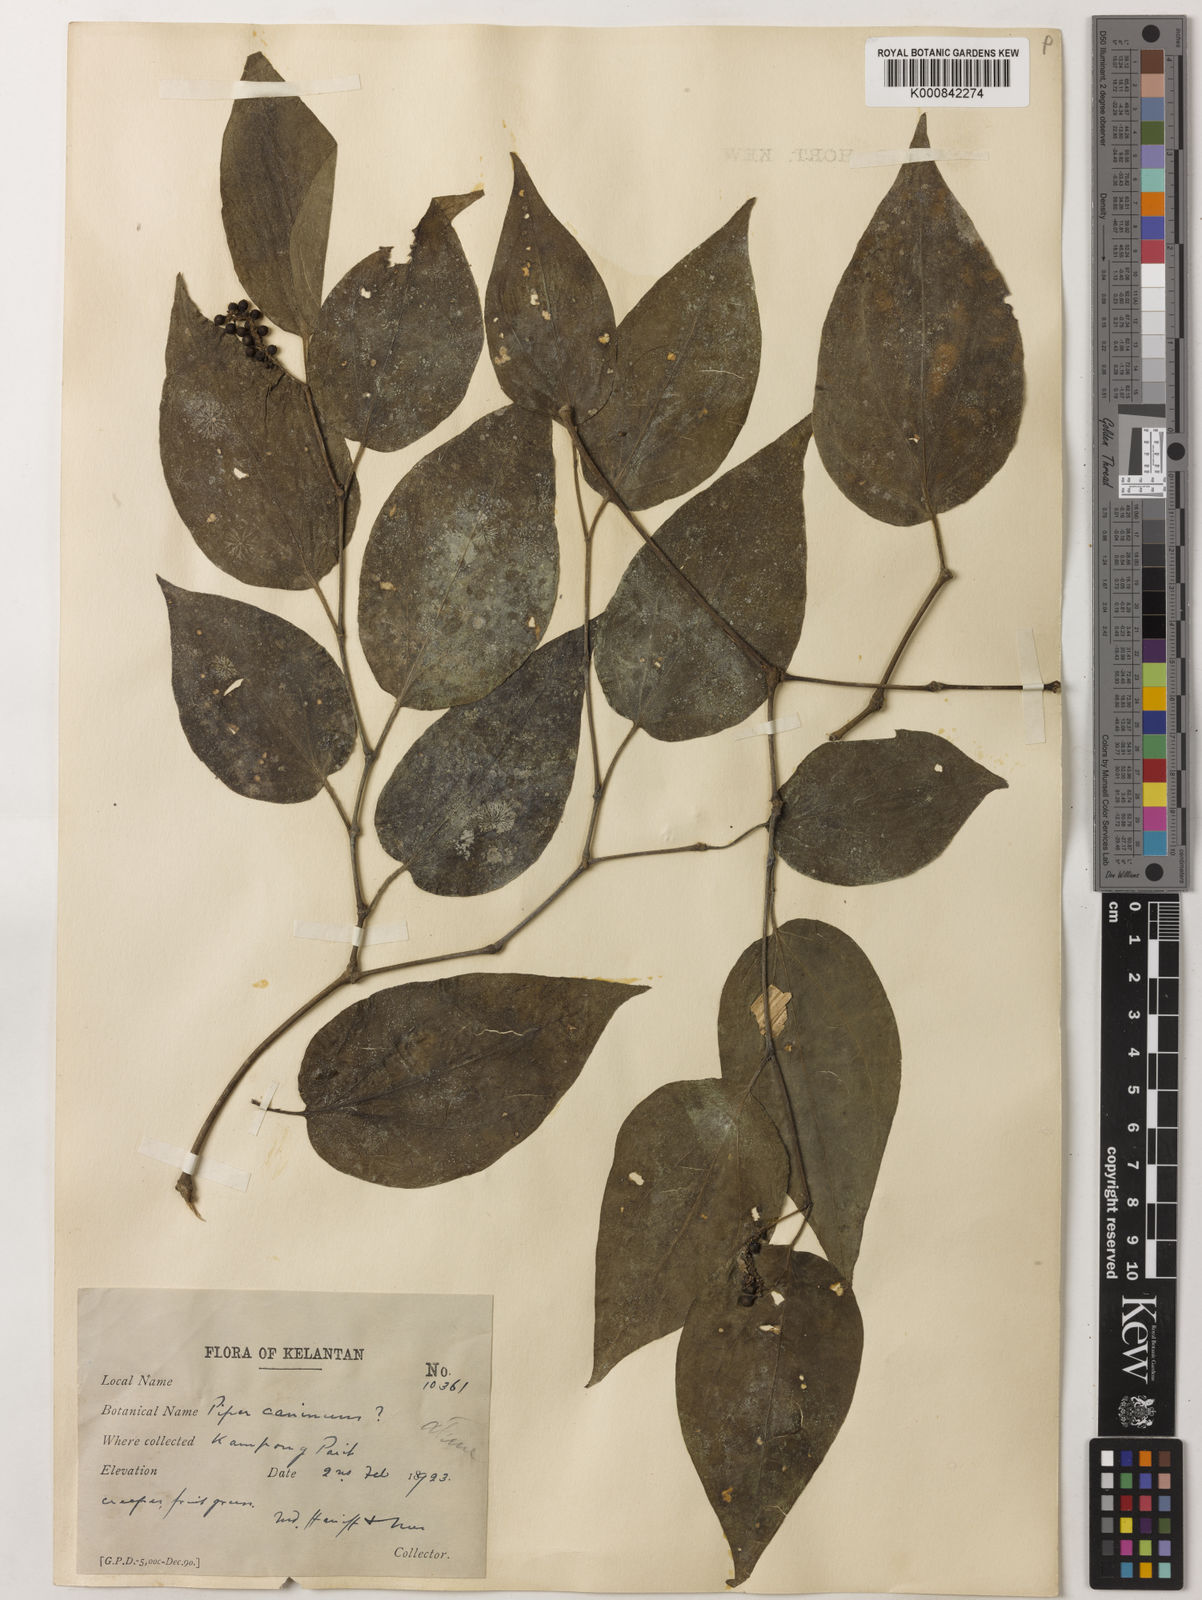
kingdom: Plantae
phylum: Tracheophyta
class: Magnoliopsida
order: Piperales
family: Piperaceae
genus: Piper
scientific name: Piper lanatum
